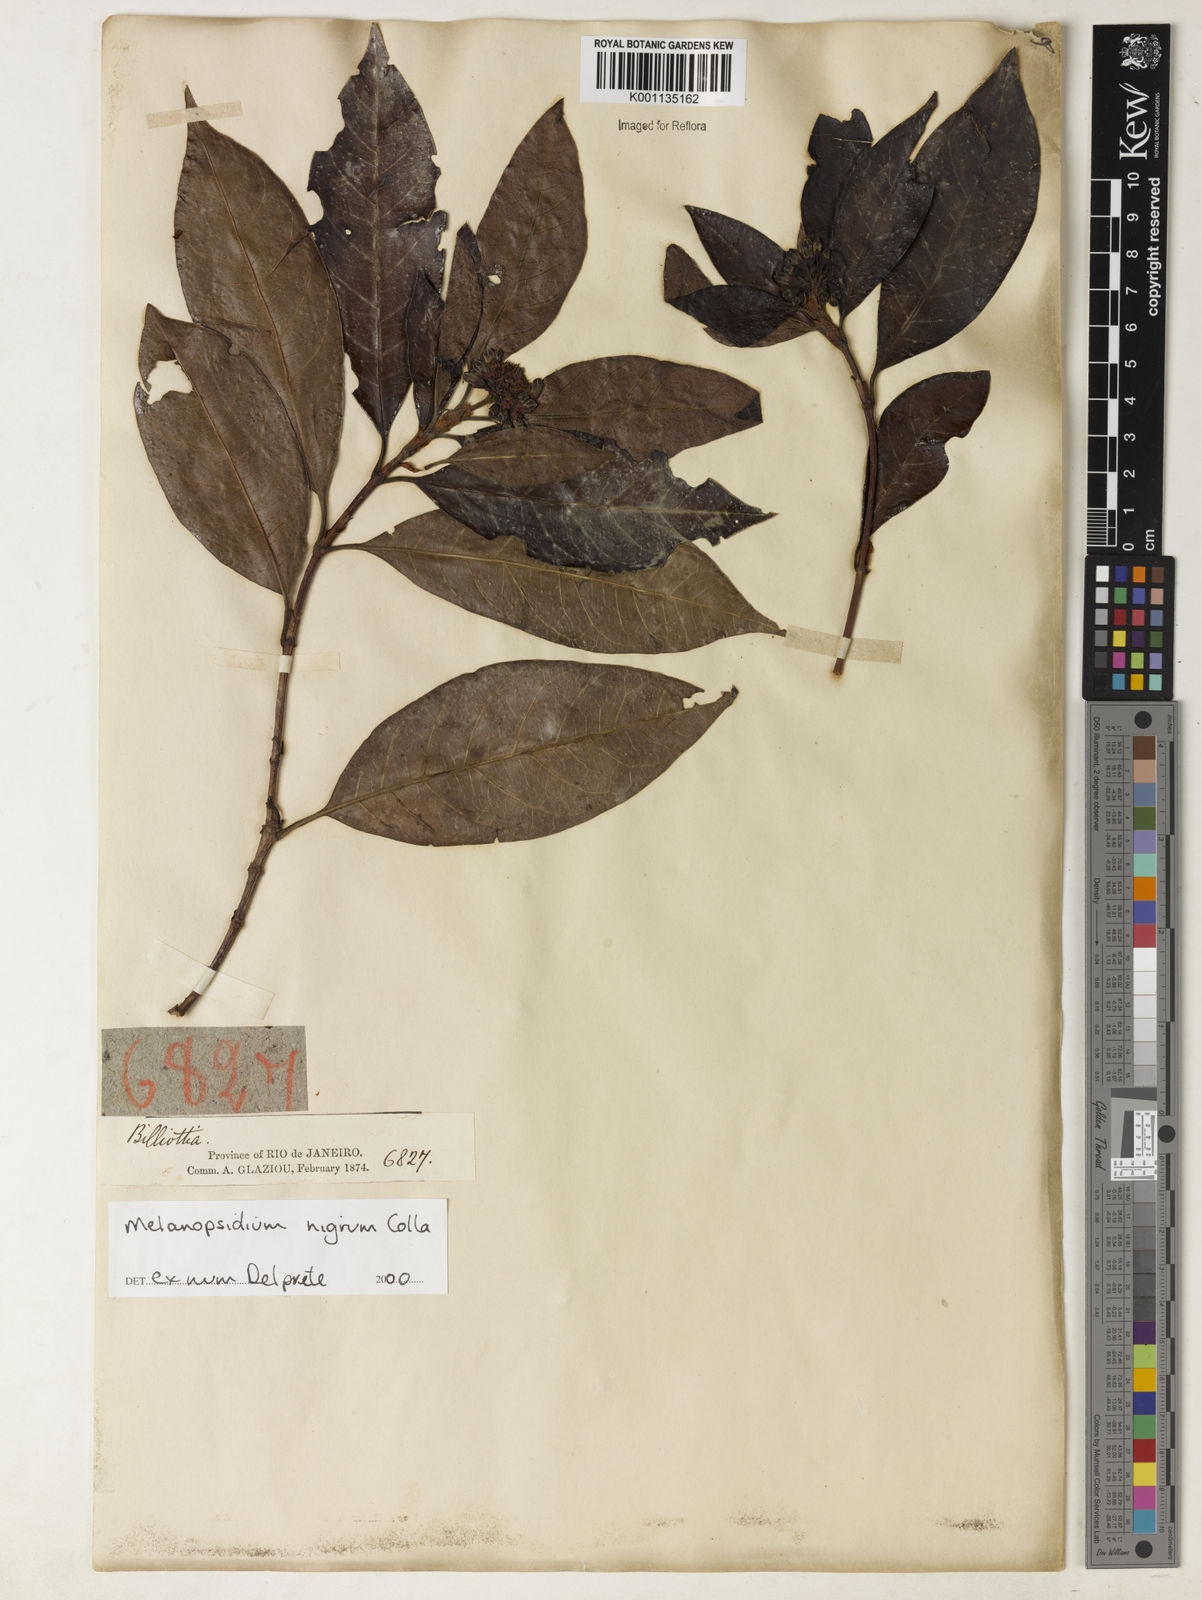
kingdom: Plantae
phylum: Tracheophyta
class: Magnoliopsida
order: Gentianales
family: Rubiaceae
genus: Melanopsidium
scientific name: Melanopsidium nigrum
